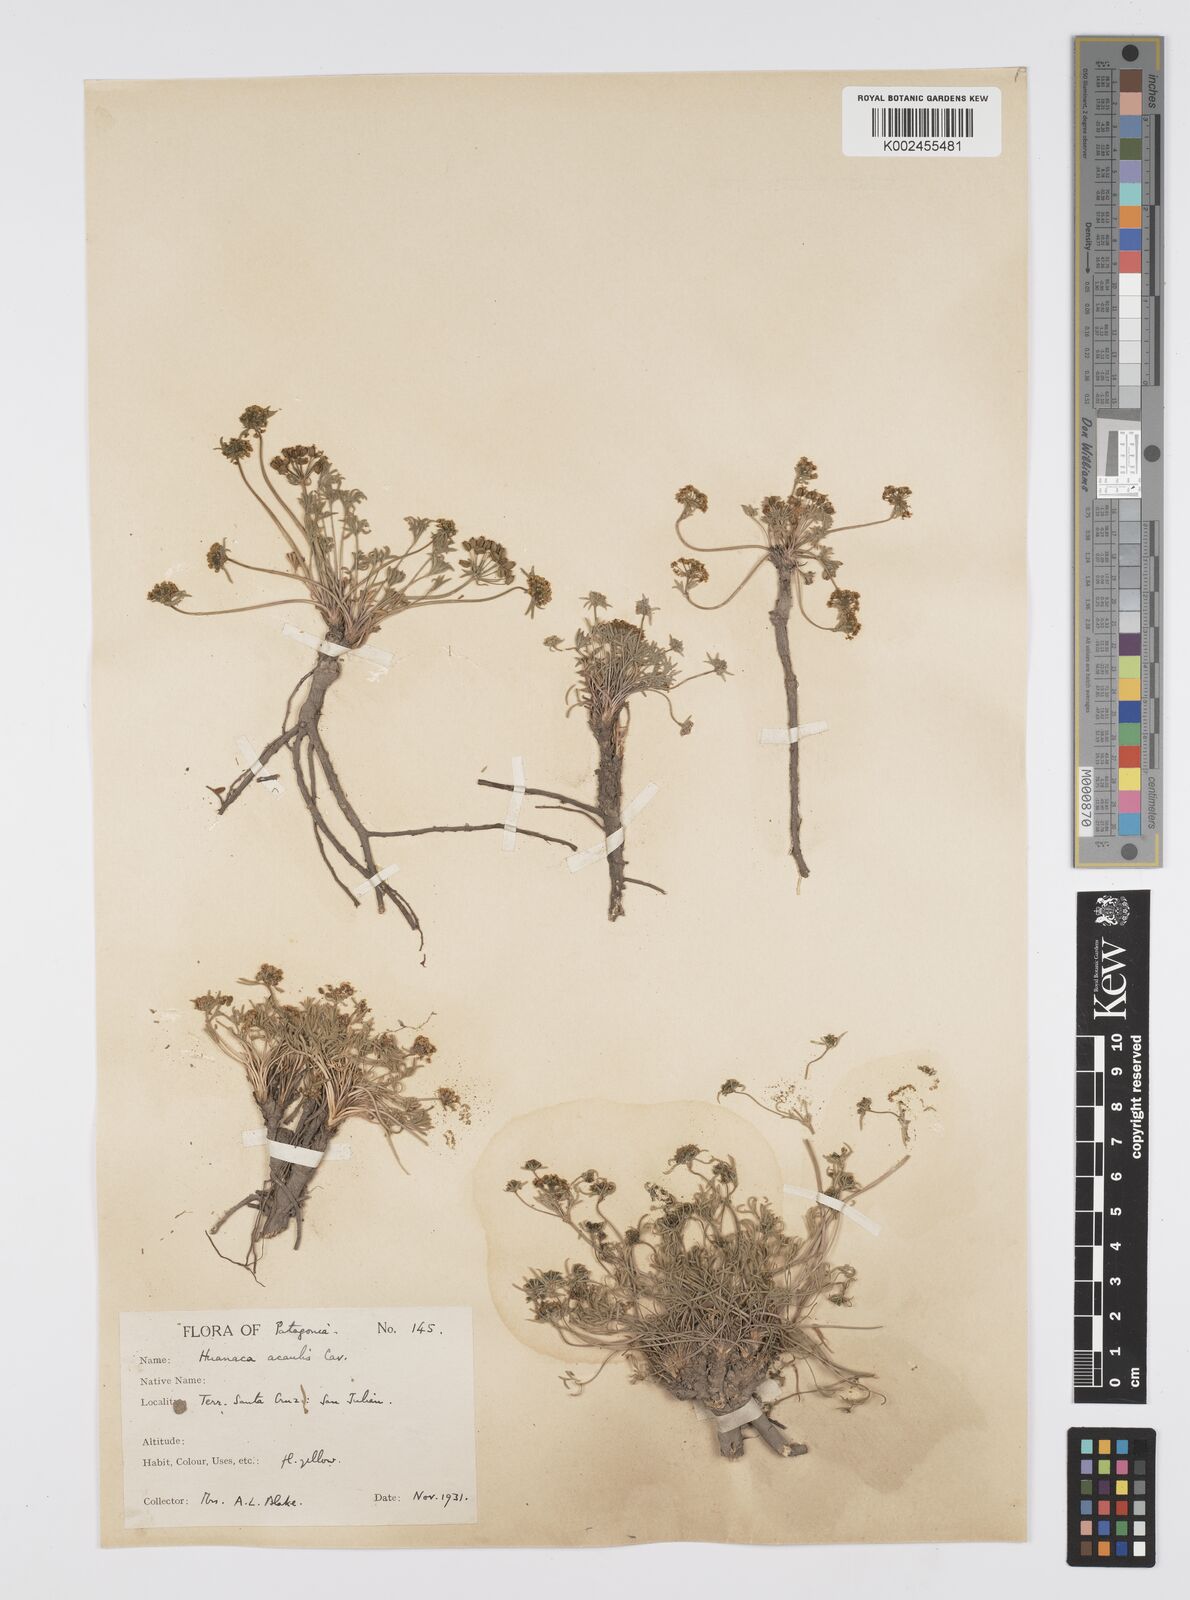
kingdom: Plantae
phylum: Tracheophyta
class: Magnoliopsida
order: Apiales
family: Apiaceae
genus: Azorella
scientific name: Azorella acaulis
